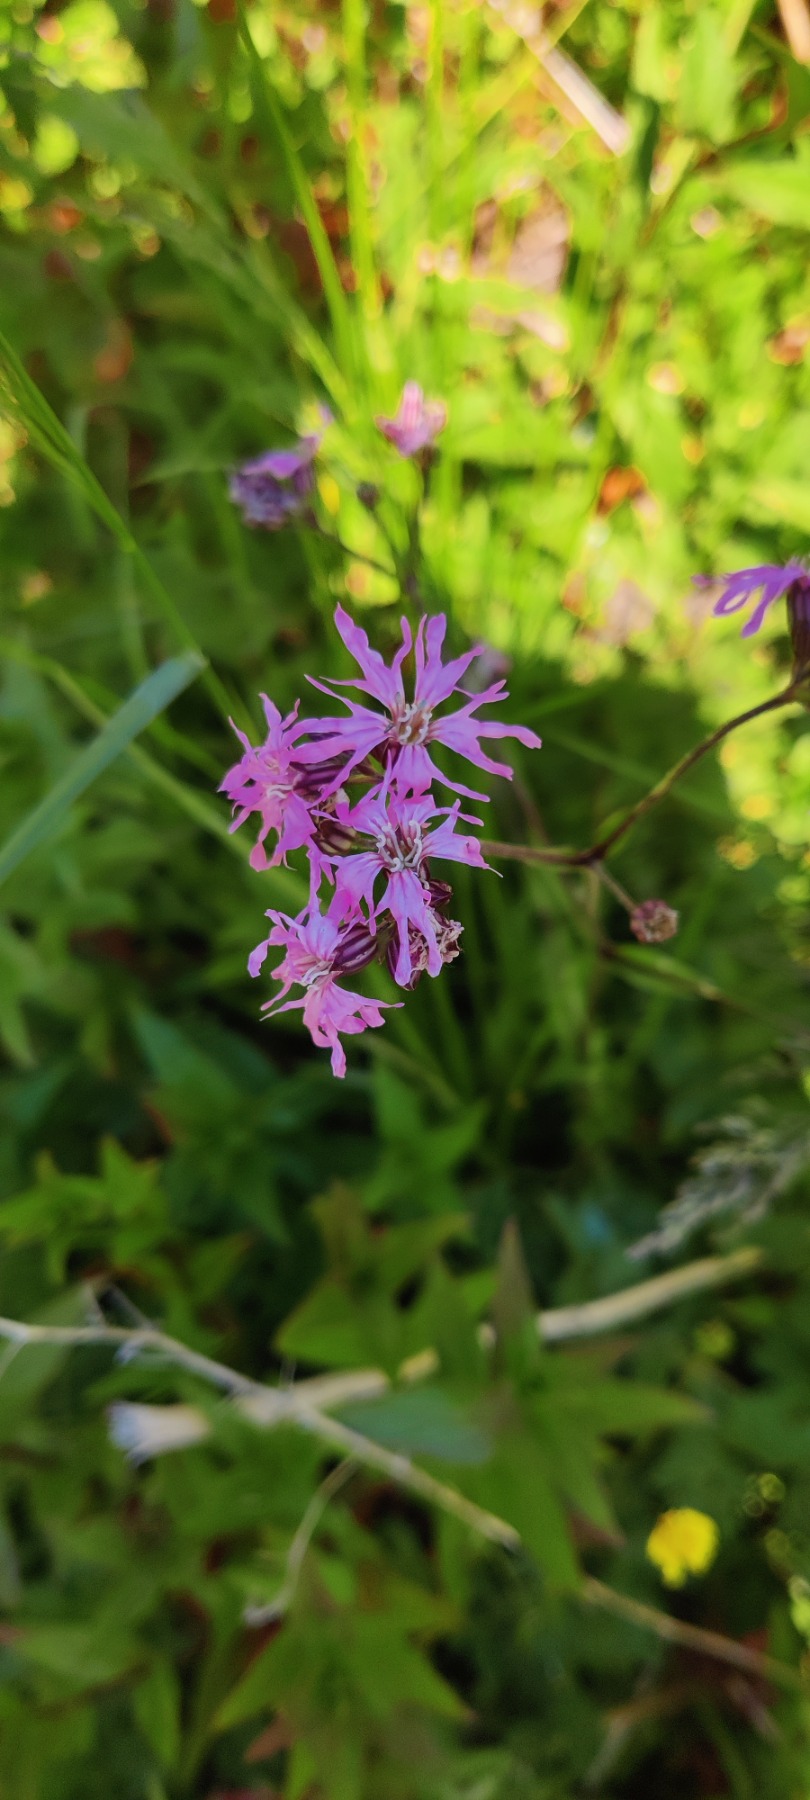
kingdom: Plantae
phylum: Tracheophyta
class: Magnoliopsida
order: Caryophyllales
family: Caryophyllaceae
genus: Silene
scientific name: Silene flos-cuculi
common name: Trævlekrone
